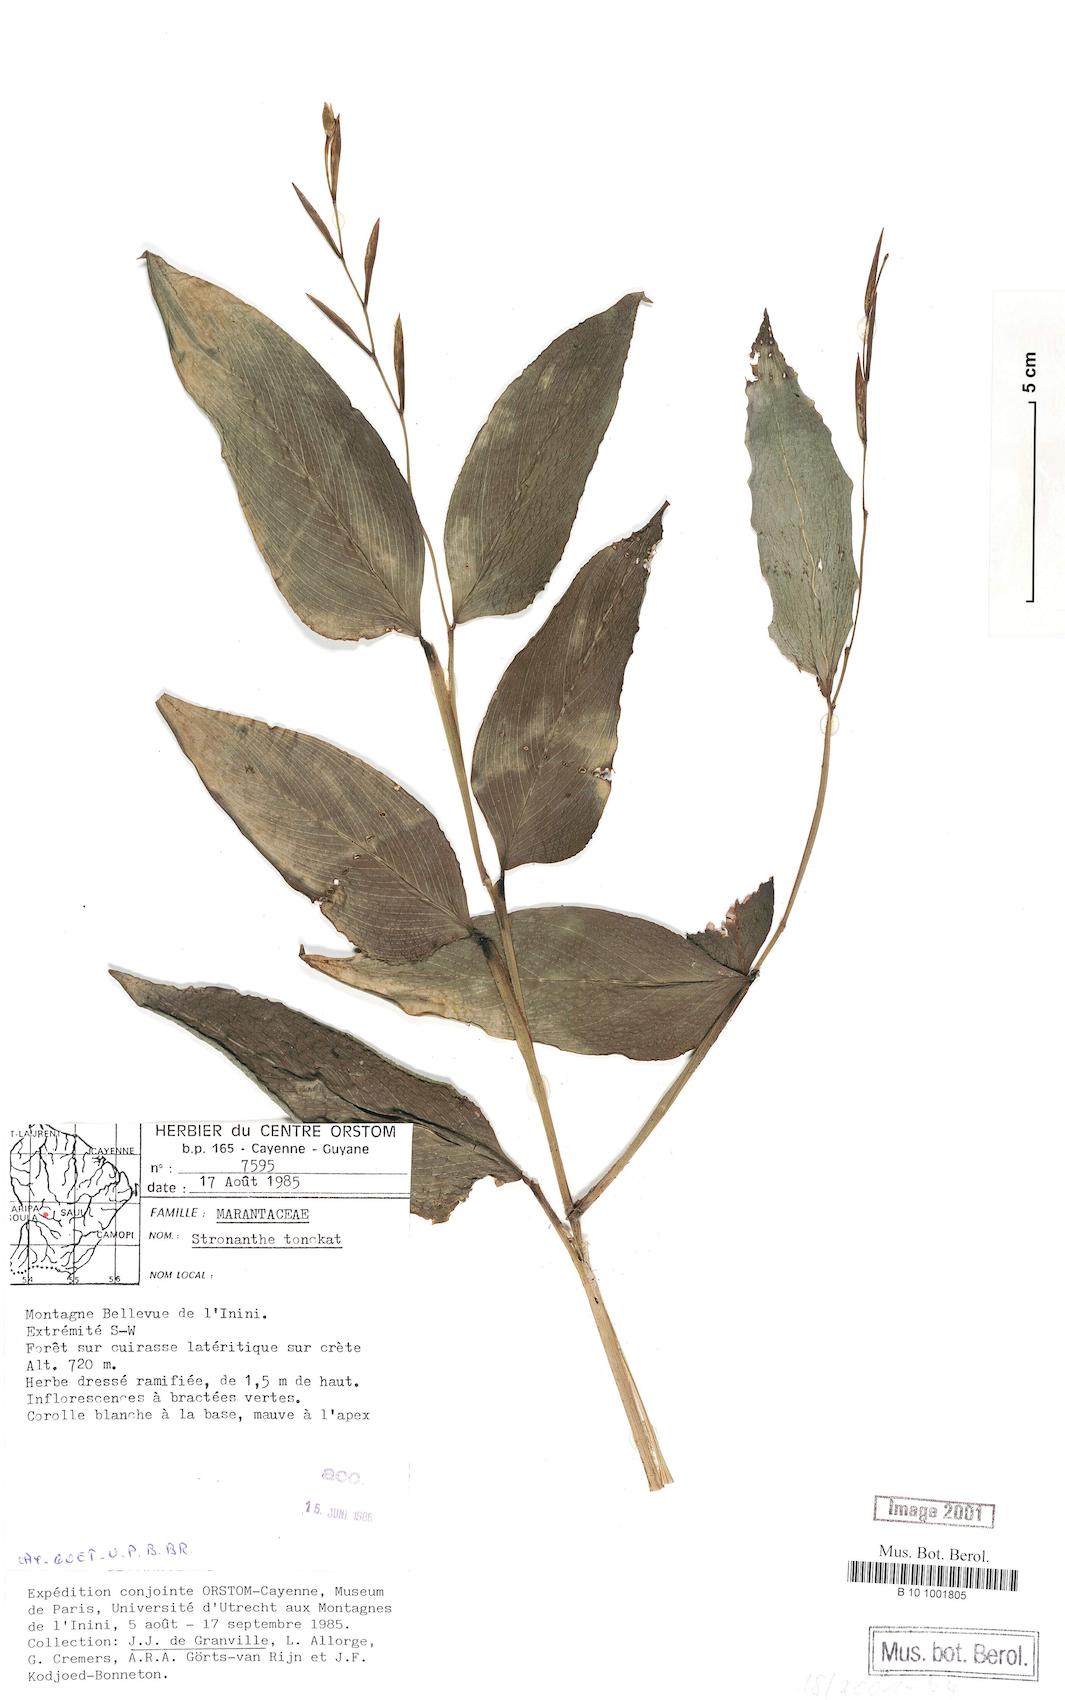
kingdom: Plantae
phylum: Tracheophyta
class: Liliopsida
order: Zingiberales
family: Marantaceae
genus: Stromanthe
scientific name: Stromanthe tonckat
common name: Stromanthe
